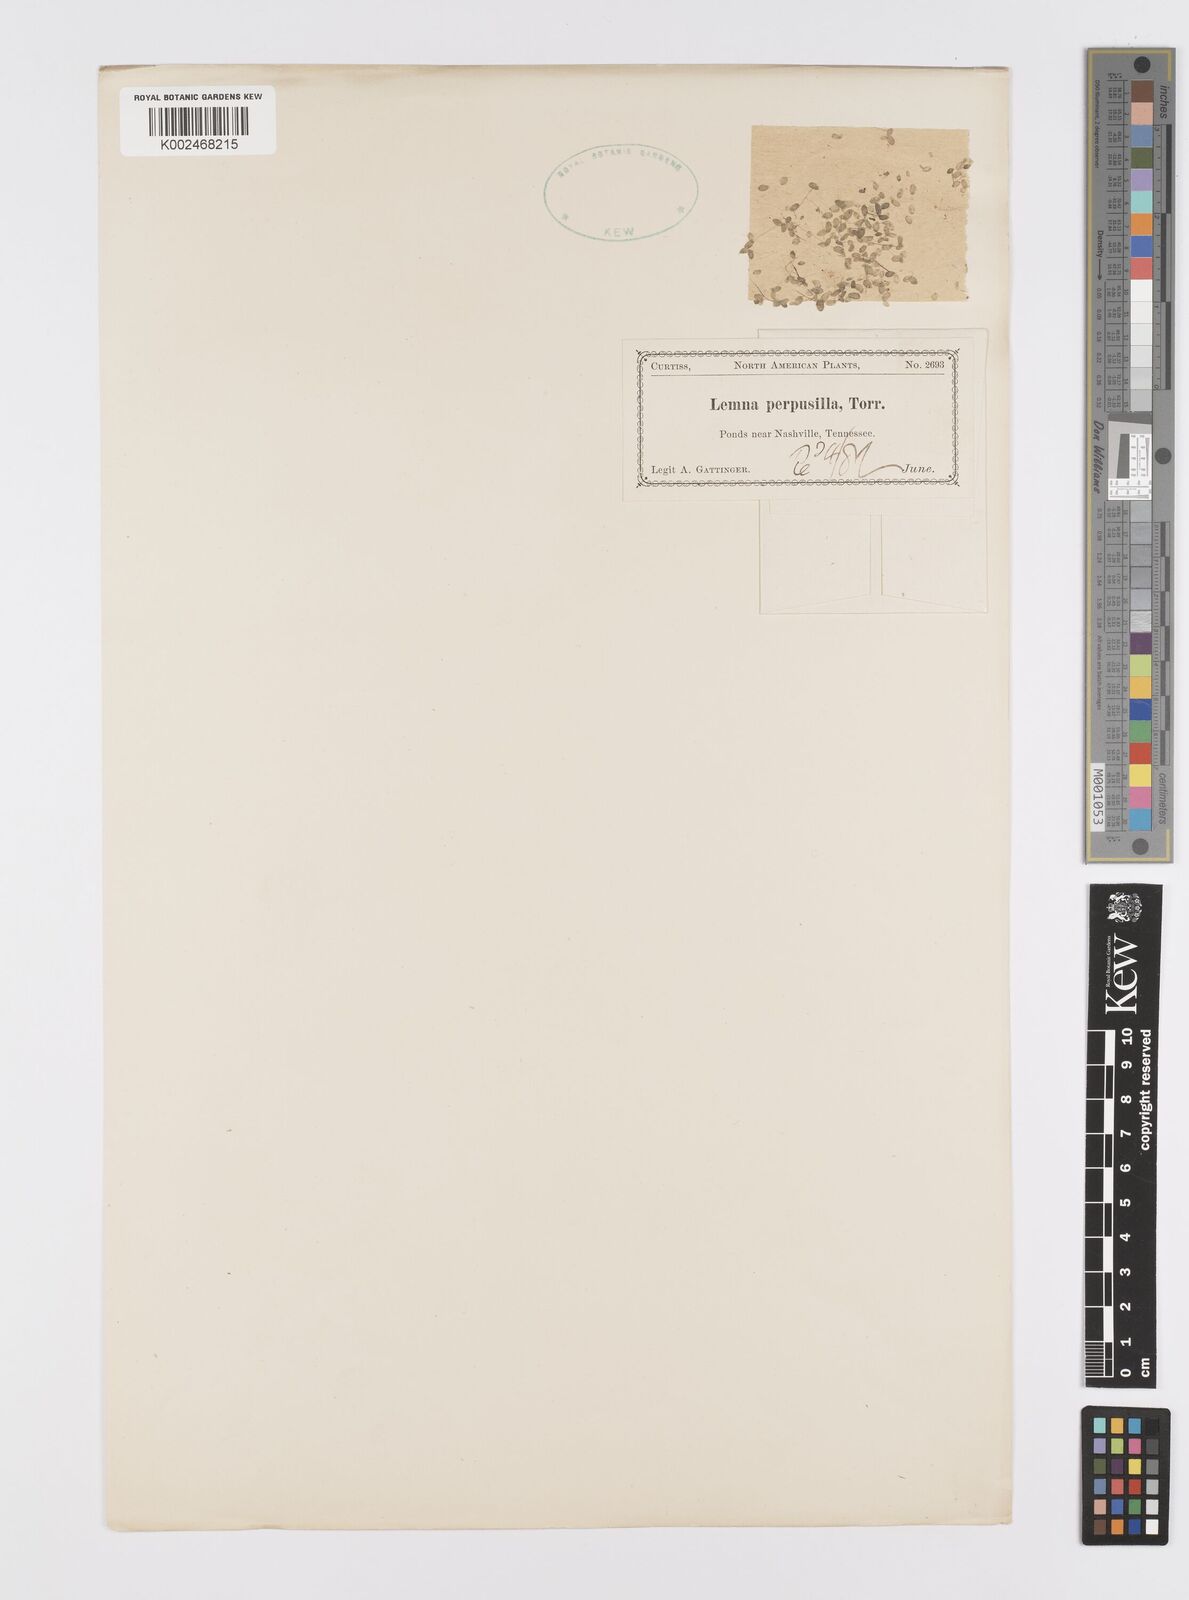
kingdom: Plantae
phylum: Tracheophyta
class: Liliopsida
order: Alismatales
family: Araceae
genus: Lemna
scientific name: Lemna perpusilla
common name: Duckweed
